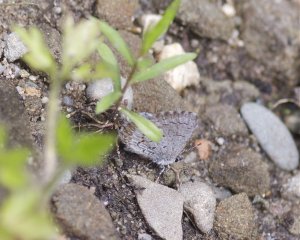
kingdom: Animalia
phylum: Arthropoda
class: Insecta
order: Lepidoptera
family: Lycaenidae
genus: Celastrina
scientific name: Celastrina lucia
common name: Northern Spring Azure
